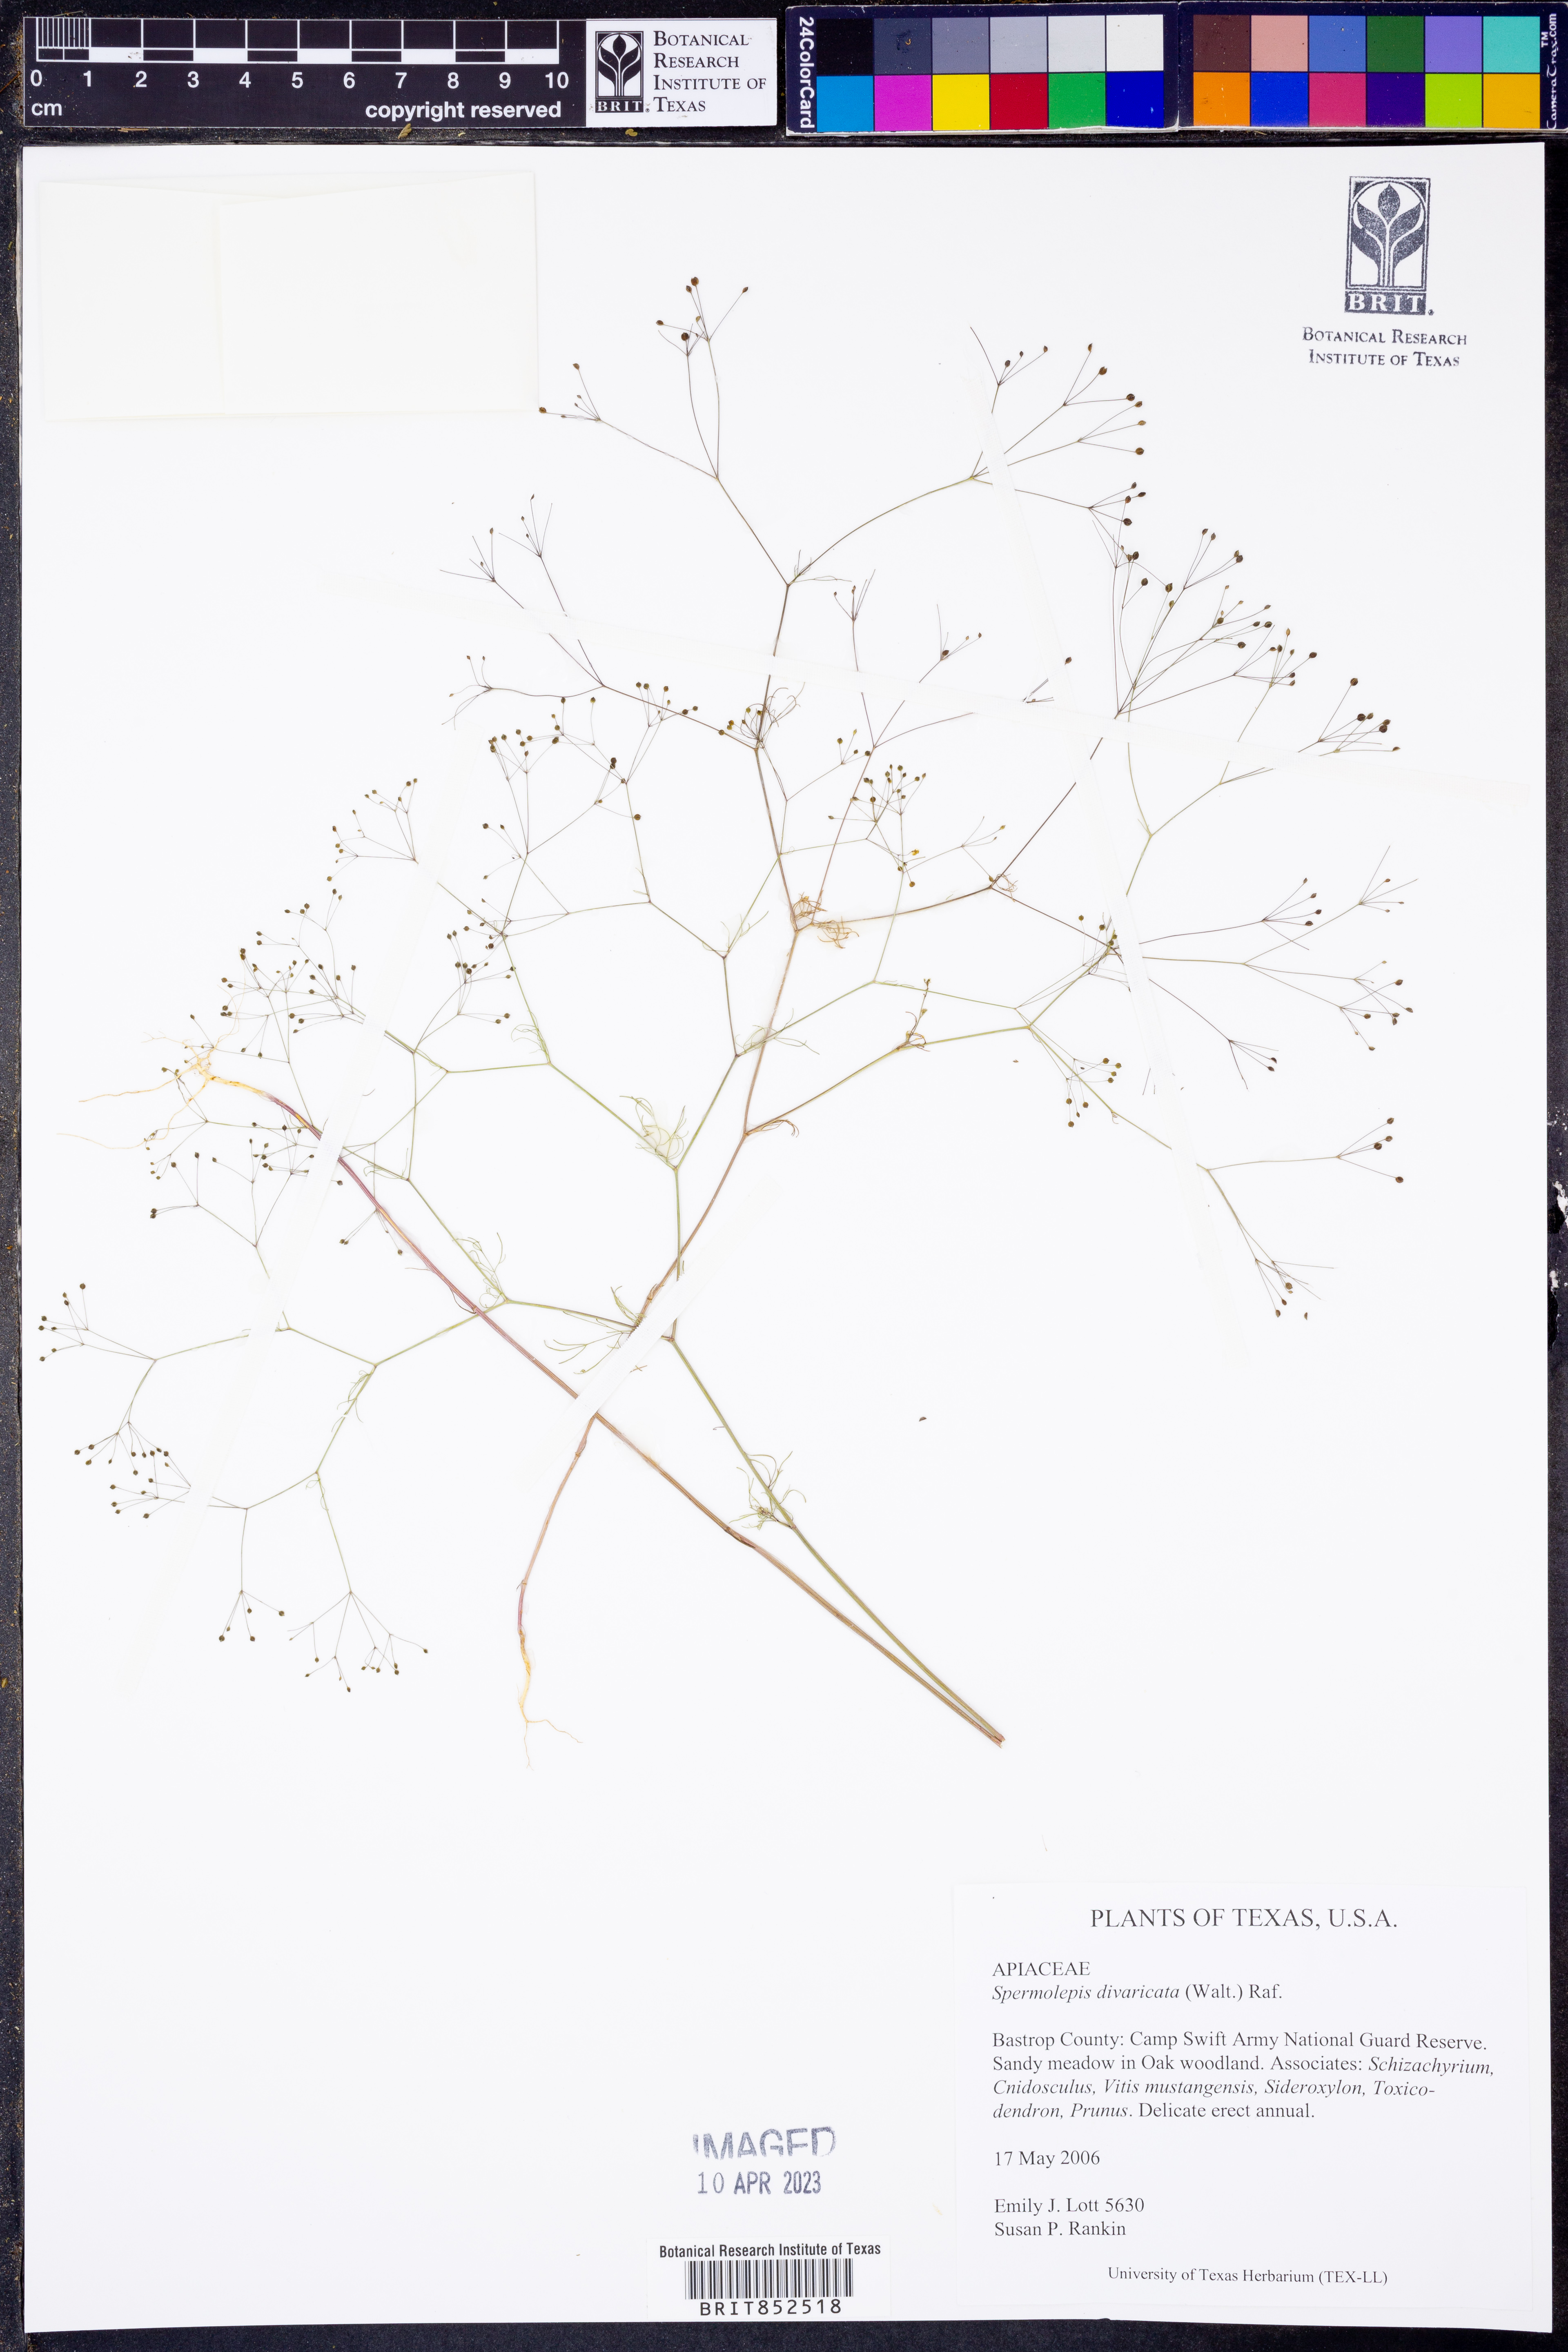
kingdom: Plantae
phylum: Tracheophyta
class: Magnoliopsida
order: Apiales
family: Apiaceae
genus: Spermolepis
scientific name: Spermolepis divaricata
